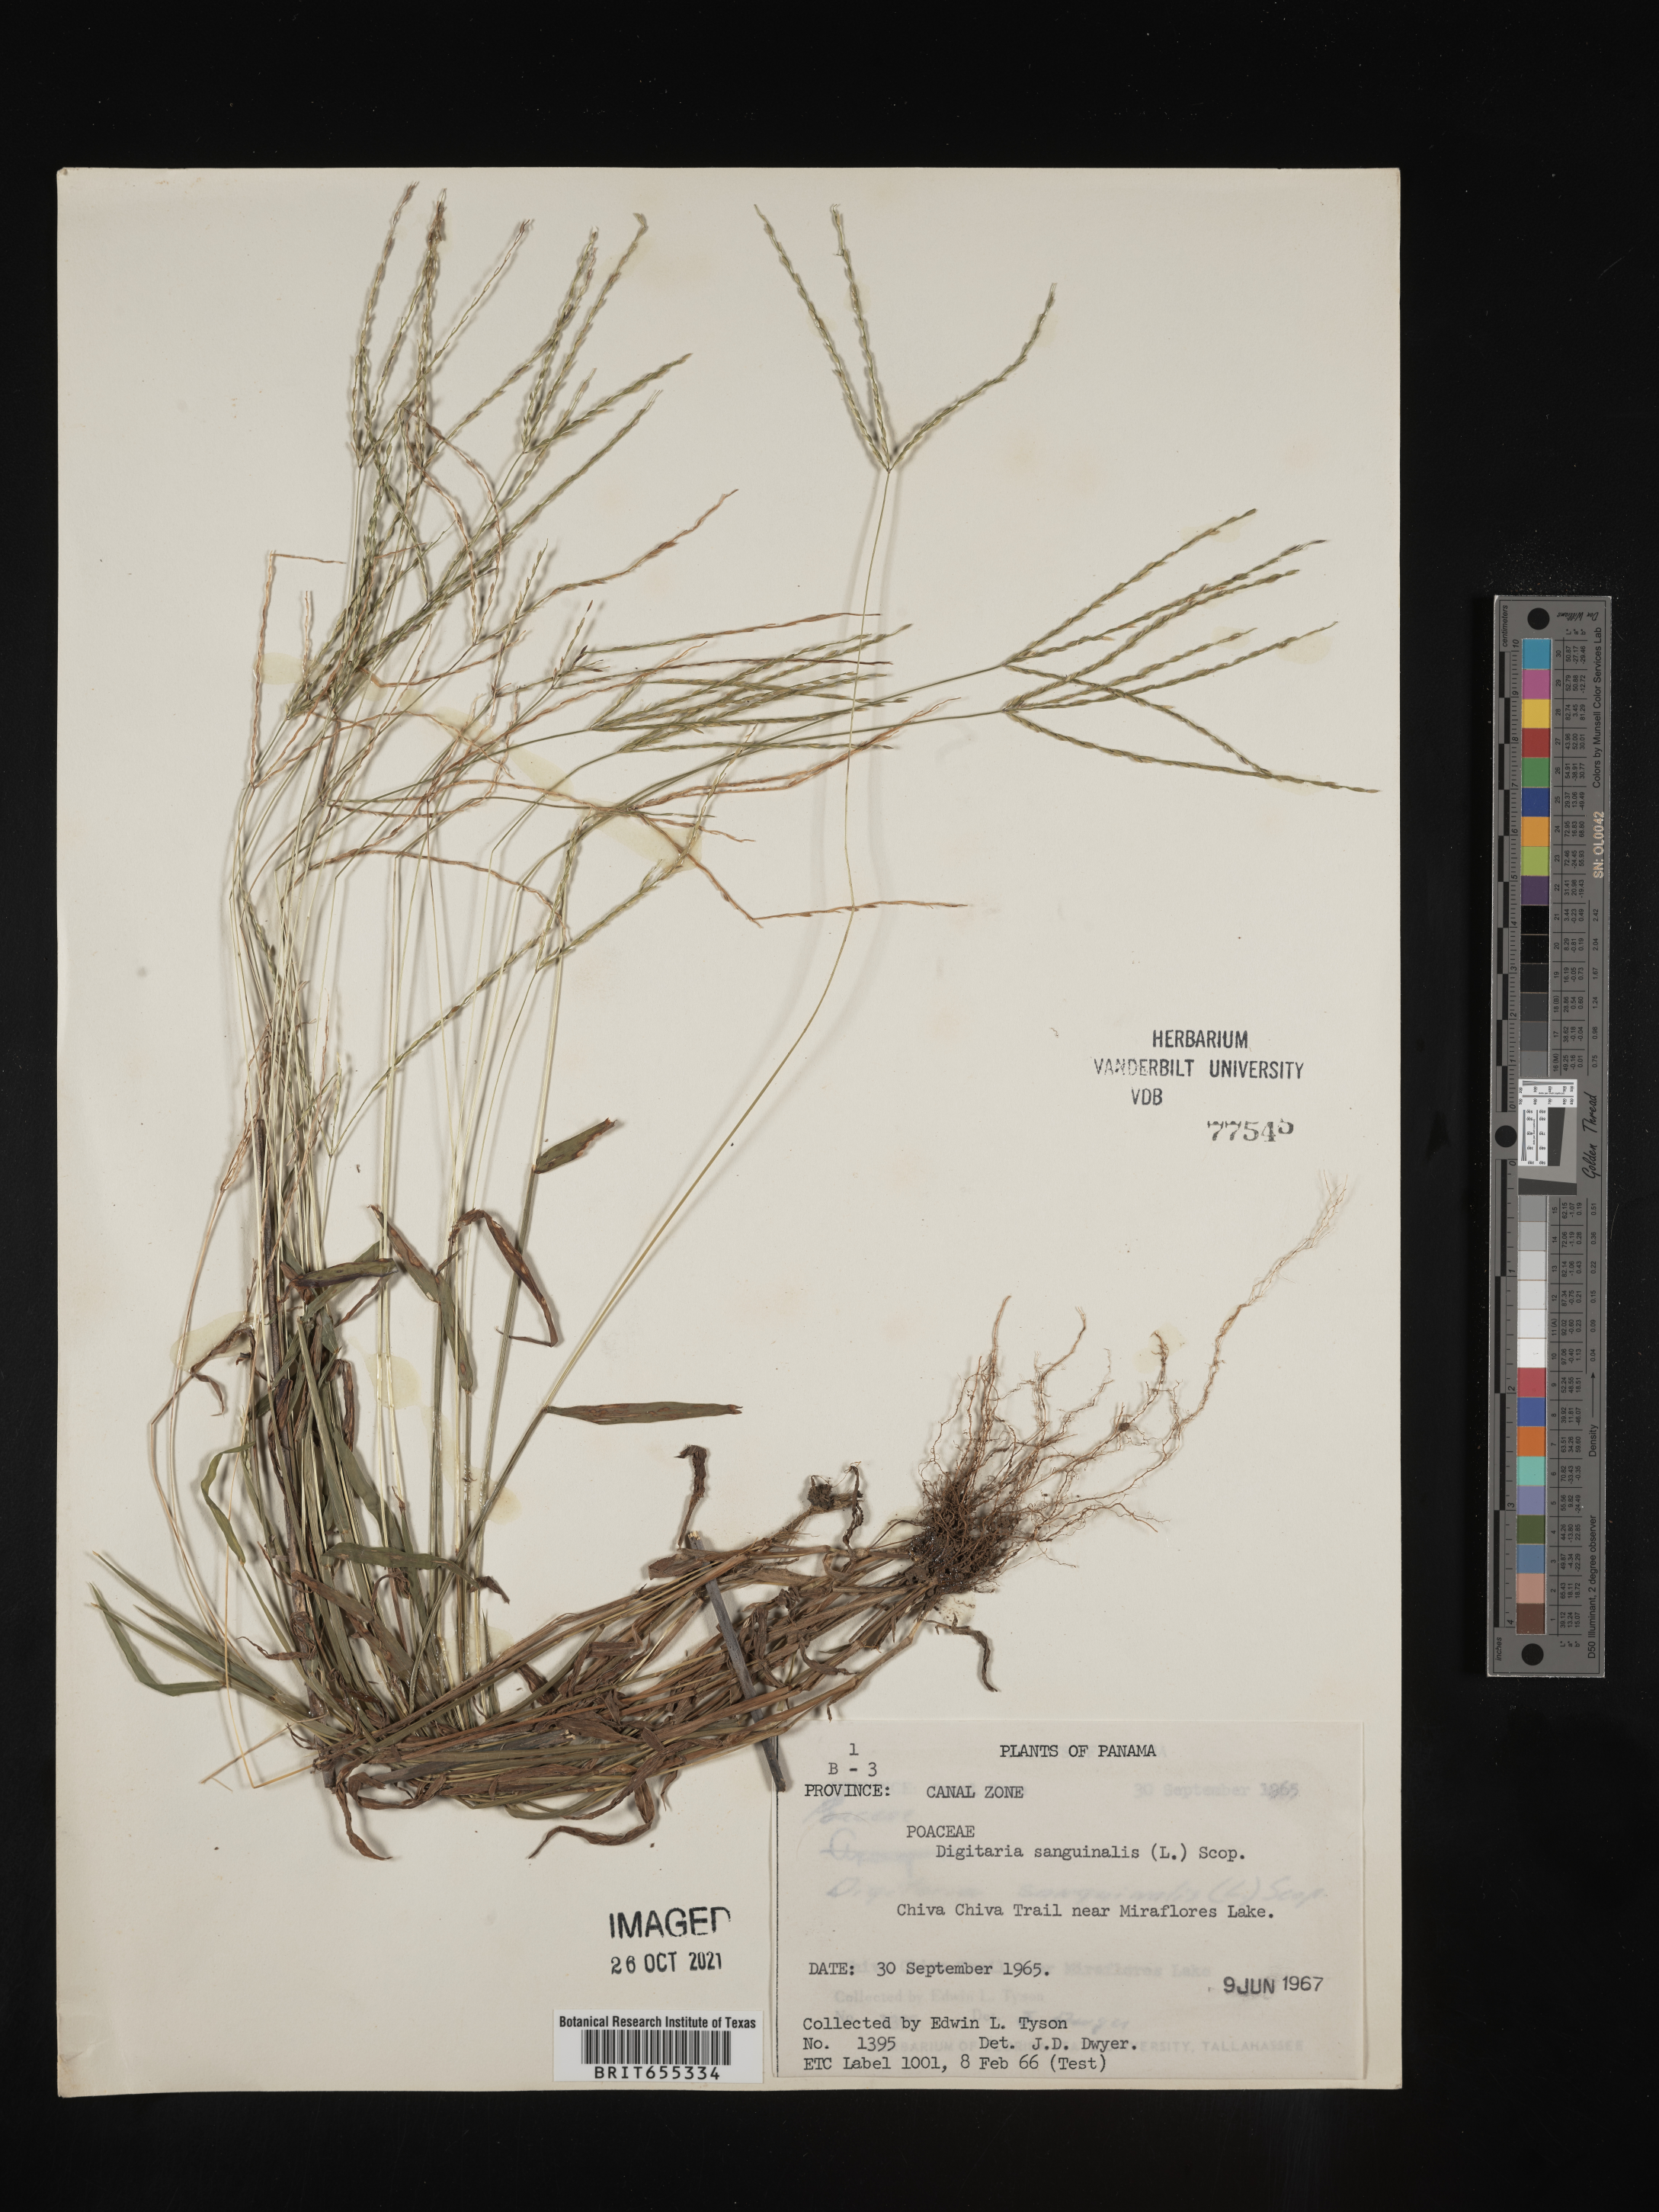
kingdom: Plantae
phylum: Tracheophyta
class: Liliopsida
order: Poales
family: Poaceae
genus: Digitaria
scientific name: Digitaria
